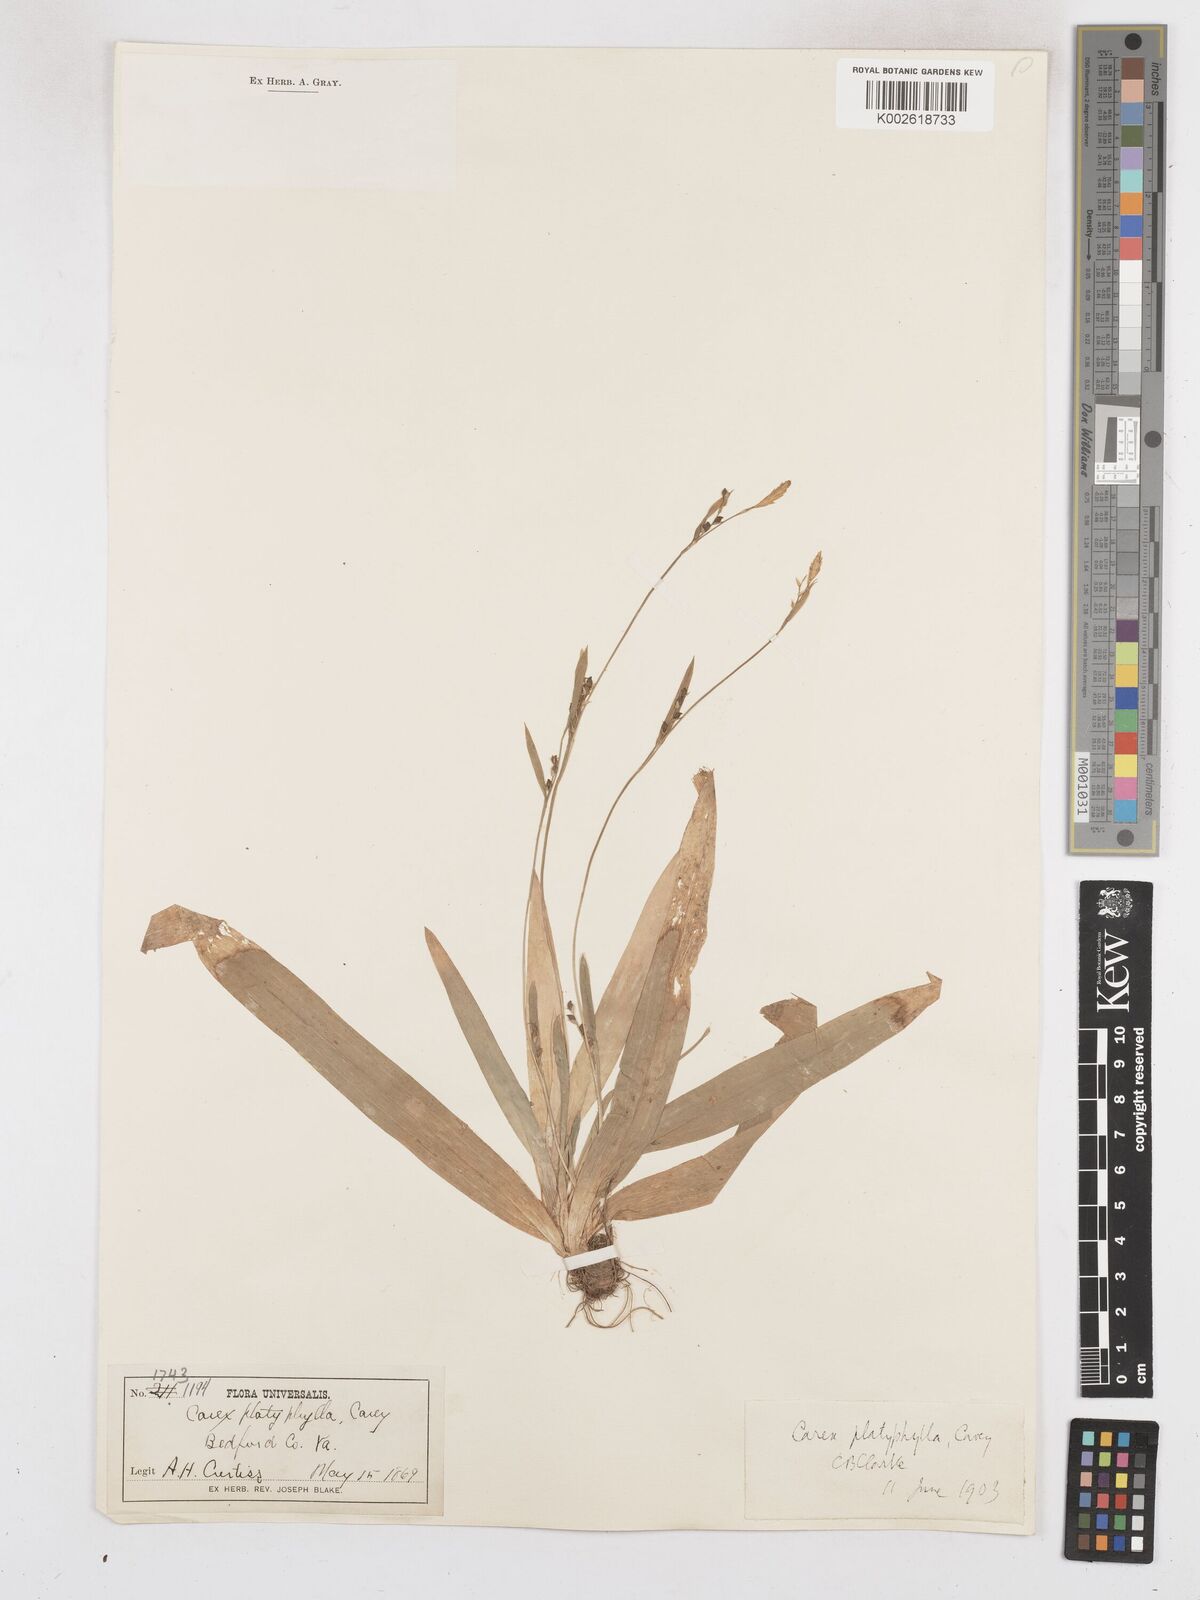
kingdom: Plantae
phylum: Tracheophyta
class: Liliopsida
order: Poales
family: Cyperaceae
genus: Carex
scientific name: Carex platyphylla
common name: Broad-leaved sedge
